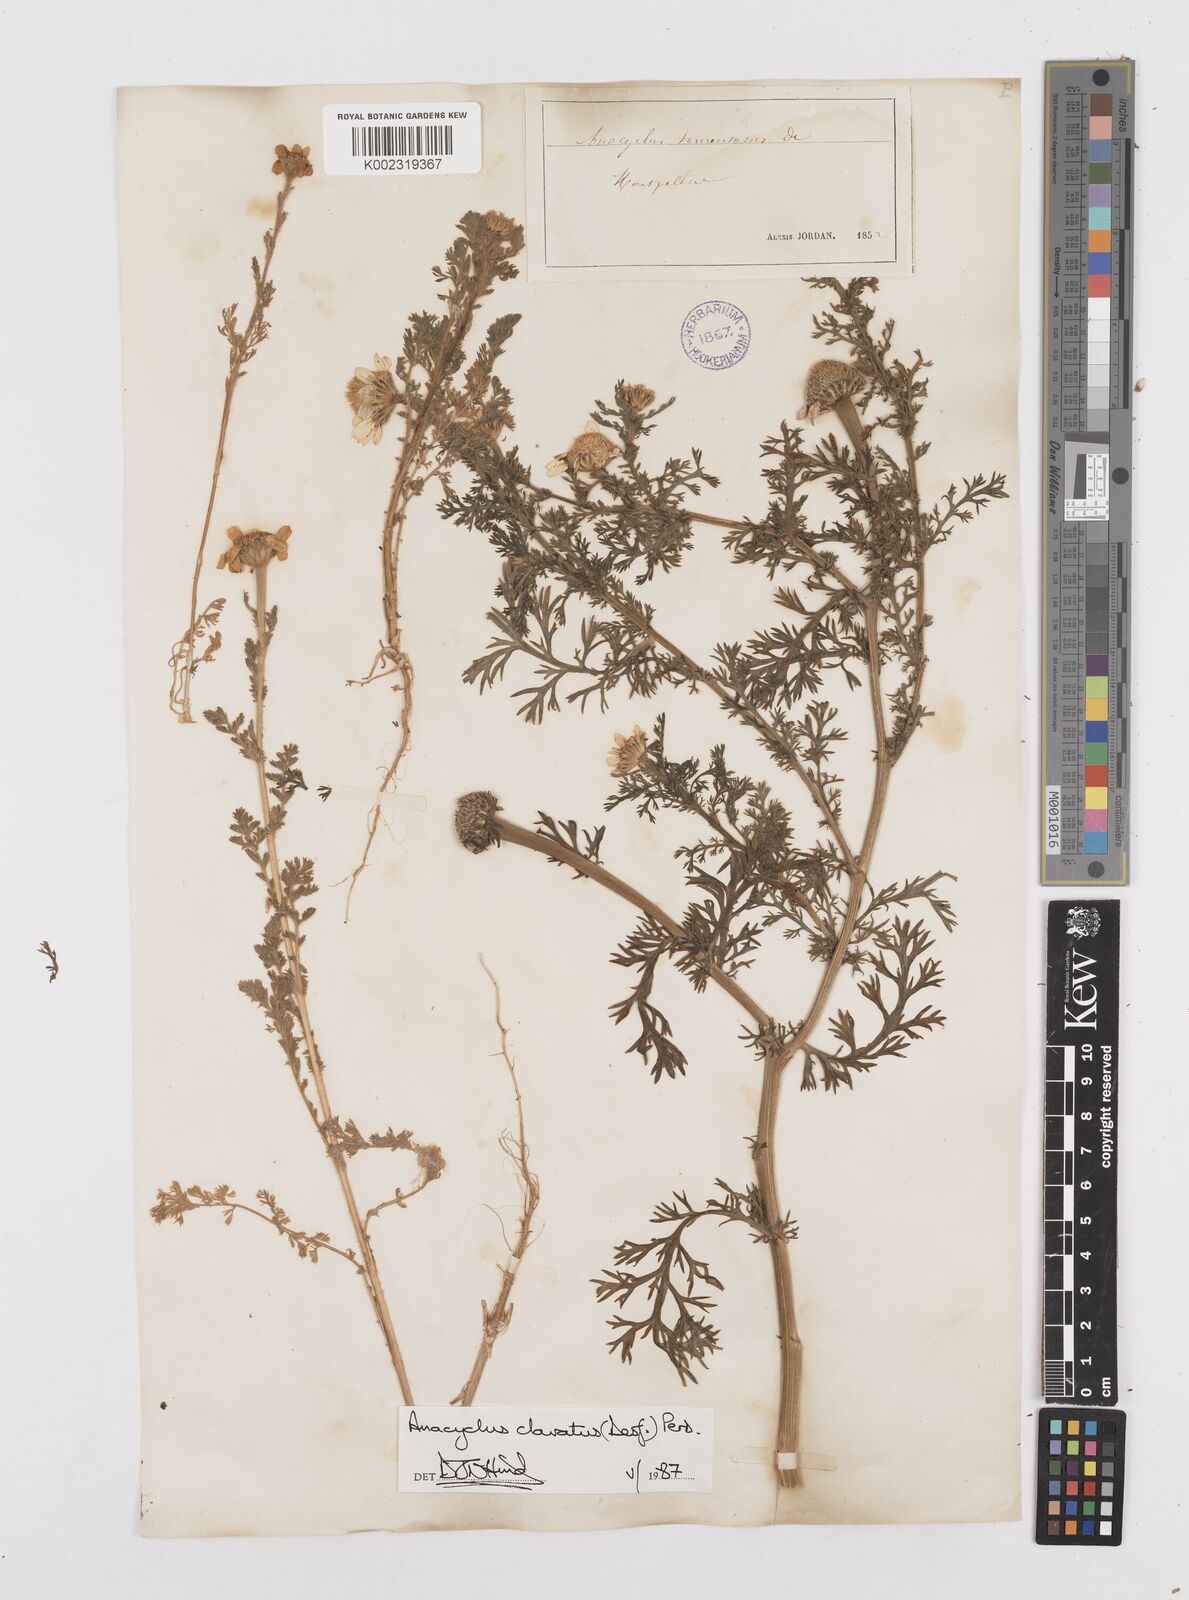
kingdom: Plantae
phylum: Tracheophyta
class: Magnoliopsida
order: Asterales
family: Asteraceae
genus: Anacyclus
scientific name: Anacyclus clavatus
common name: Whitebuttons
